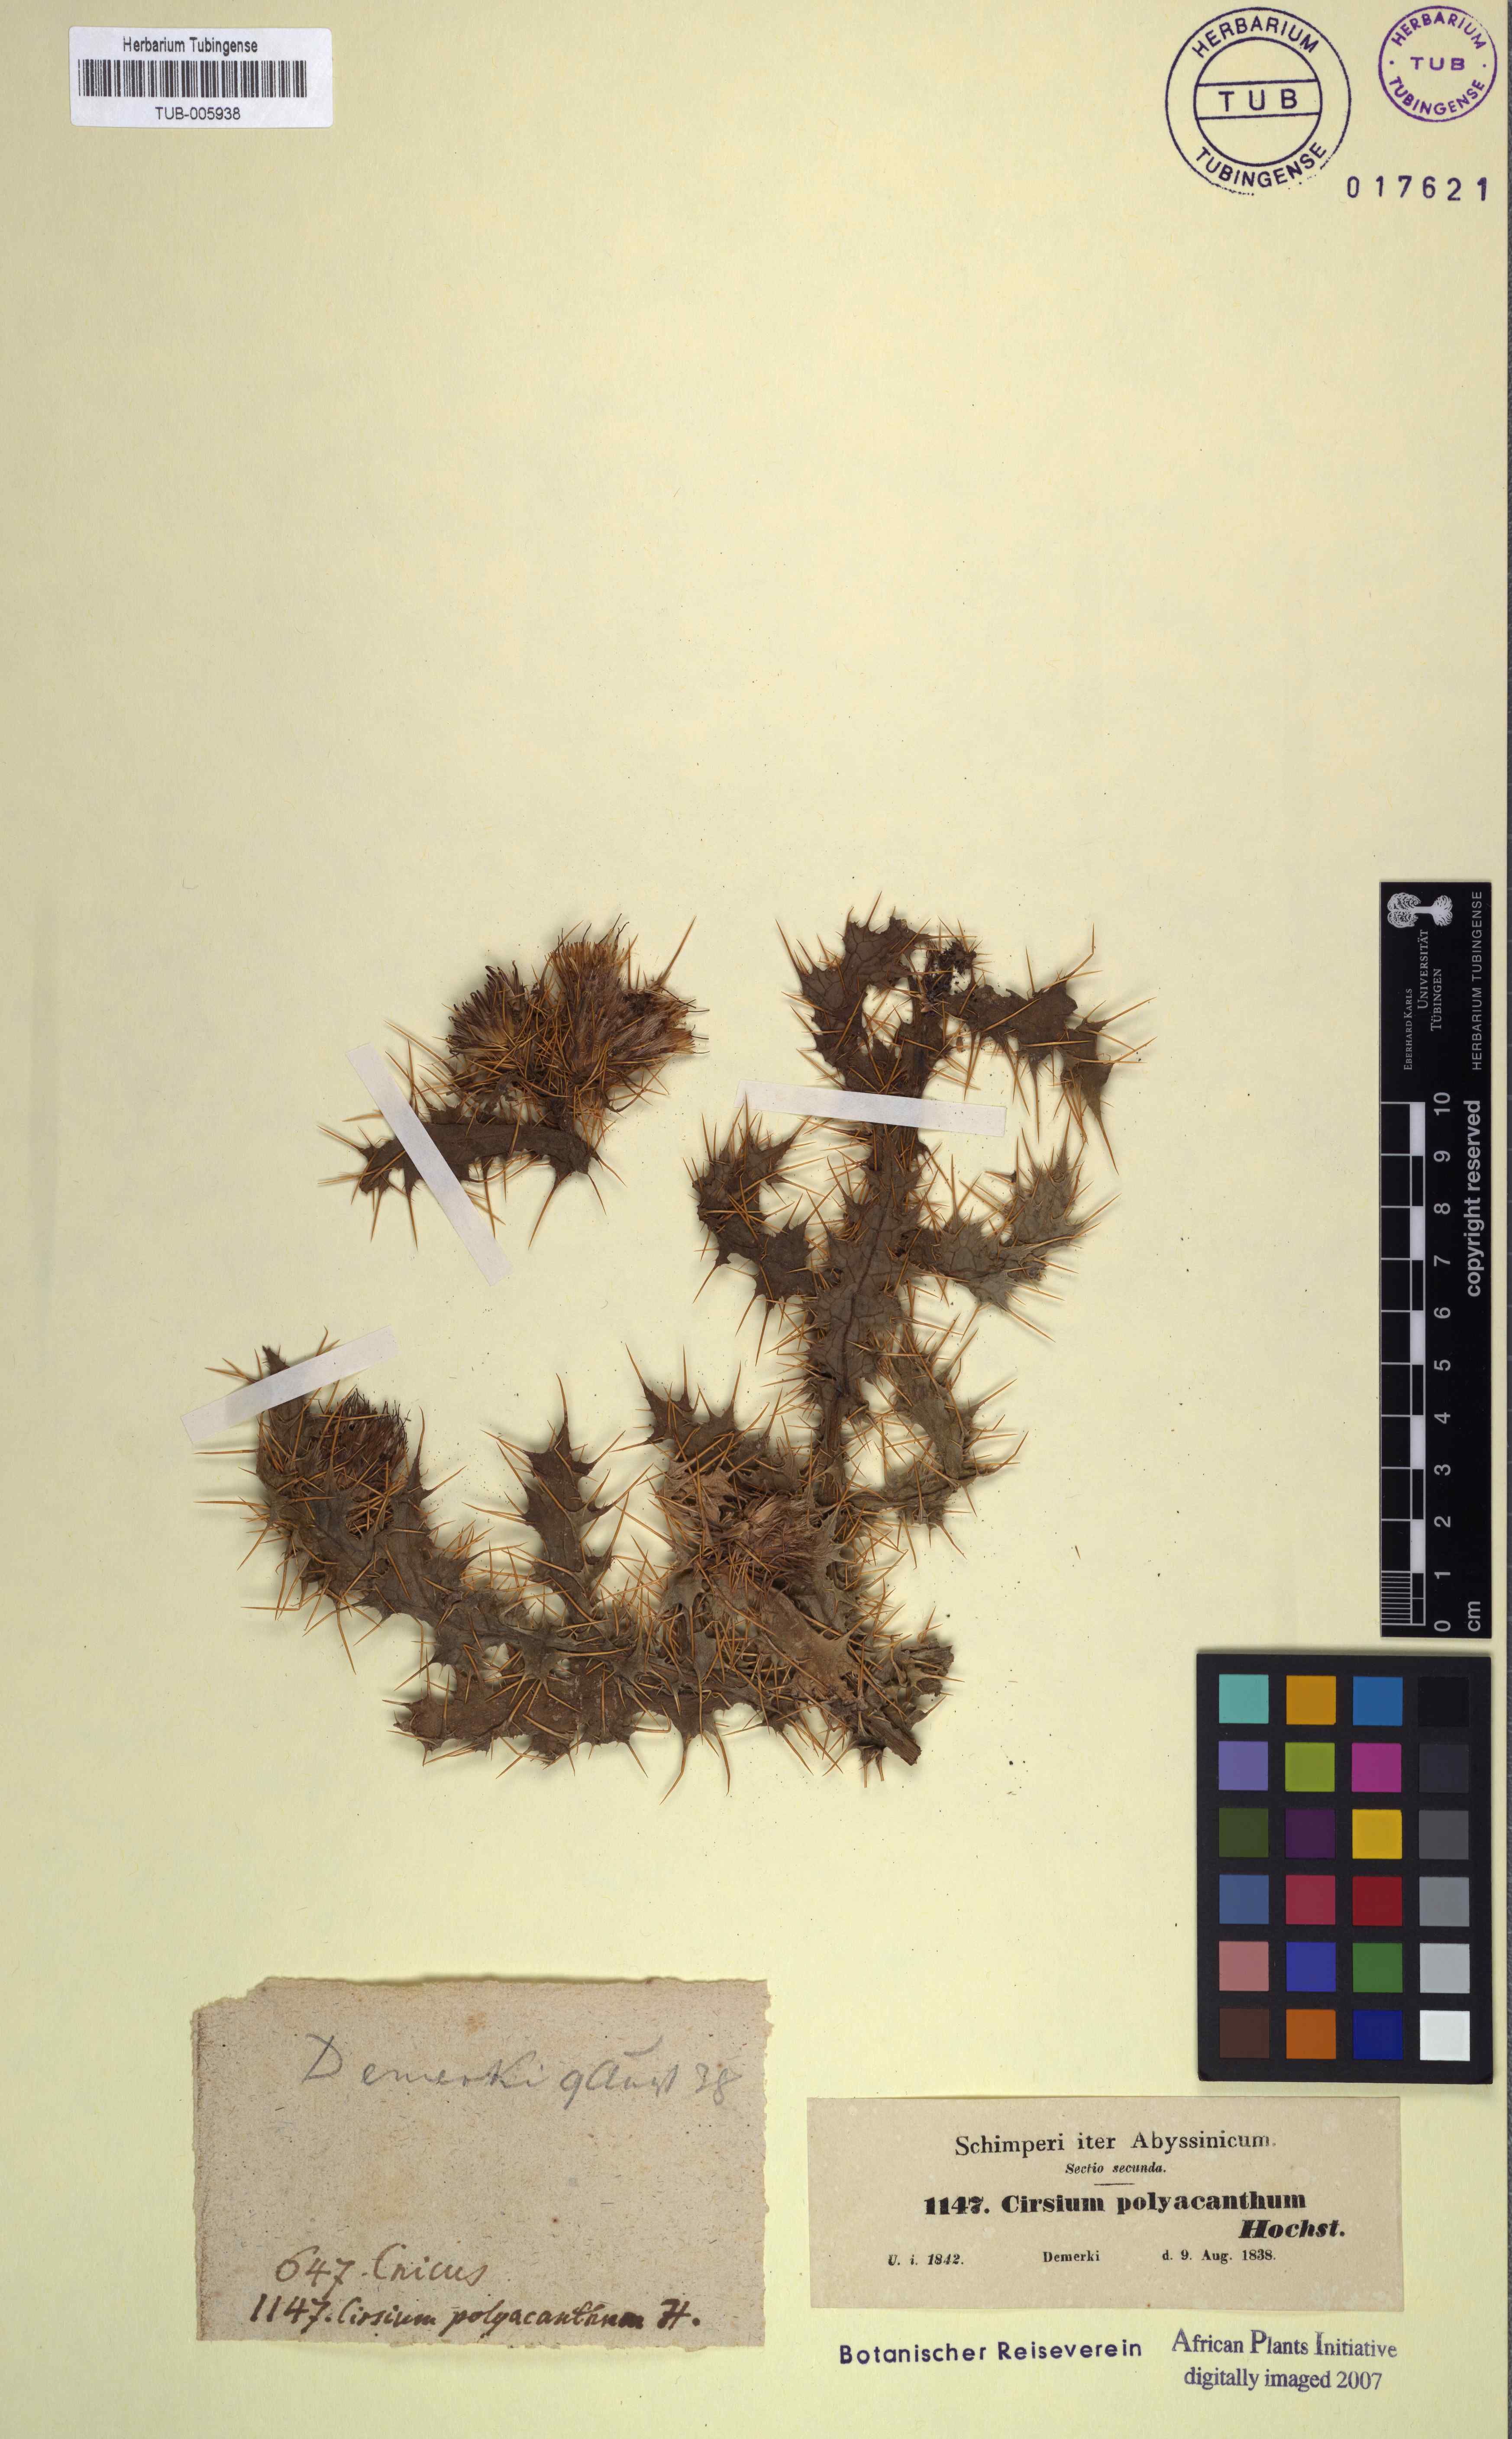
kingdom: Plantae
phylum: Tracheophyta
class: Magnoliopsida
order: Asterales
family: Asteraceae
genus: Cirsium
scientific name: Cirsium straminispinum
